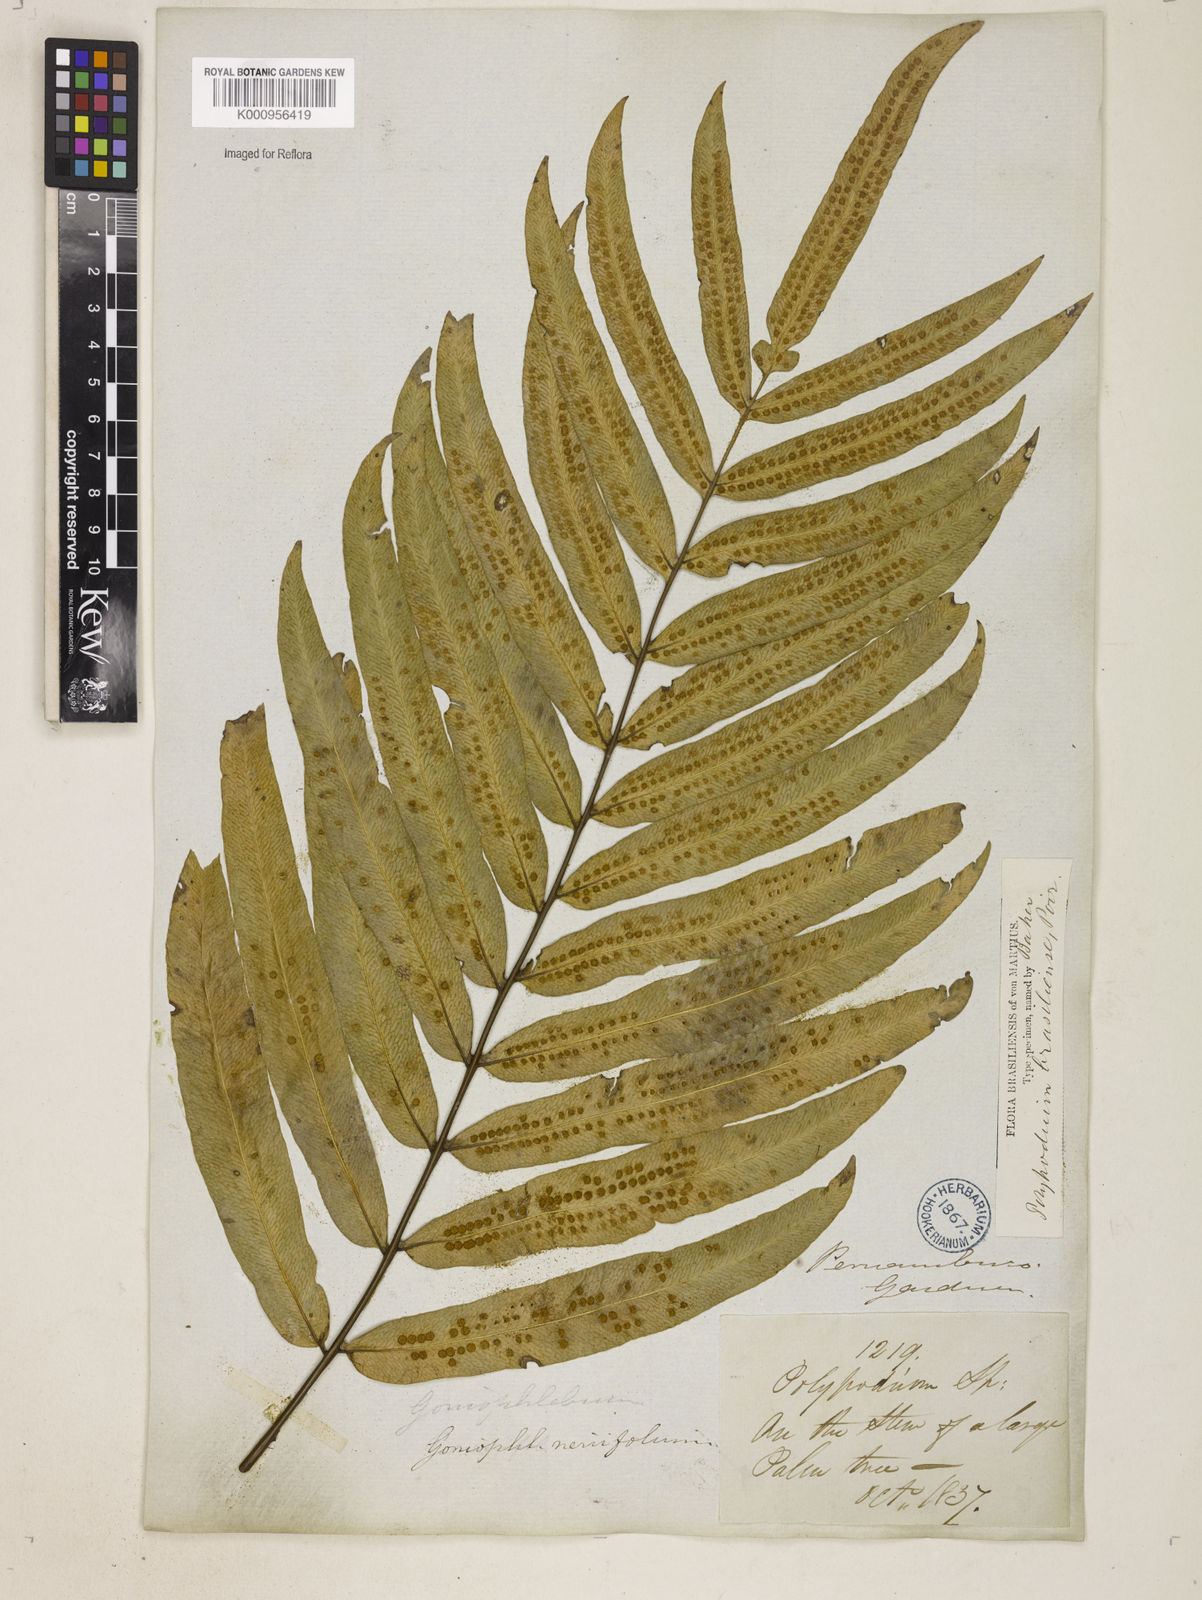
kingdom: Plantae
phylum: Tracheophyta
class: Polypodiopsida
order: Polypodiales
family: Polypodiaceae
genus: Serpocaulon
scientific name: Serpocaulon triseriale
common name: Angle-vein fern
